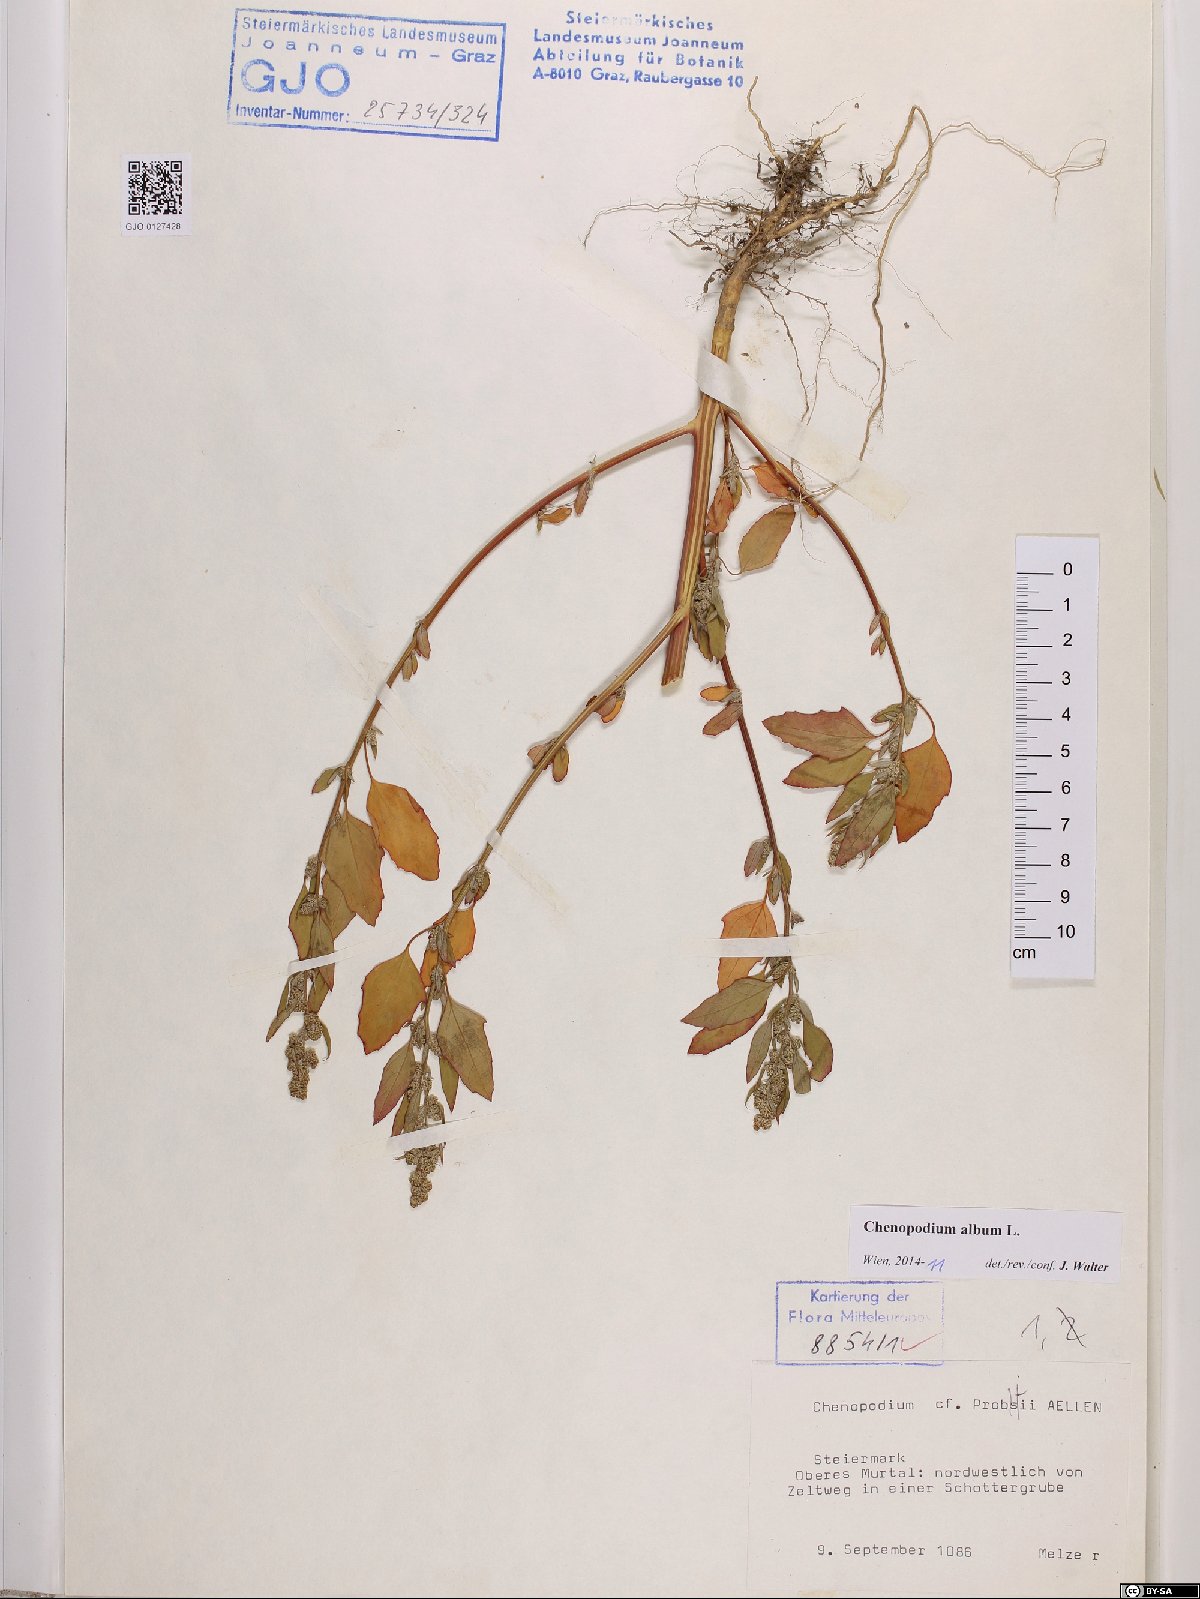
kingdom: Plantae
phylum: Tracheophyta
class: Magnoliopsida
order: Caryophyllales
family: Amaranthaceae
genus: Chenopodium
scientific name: Chenopodium album
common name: Fat-hen
